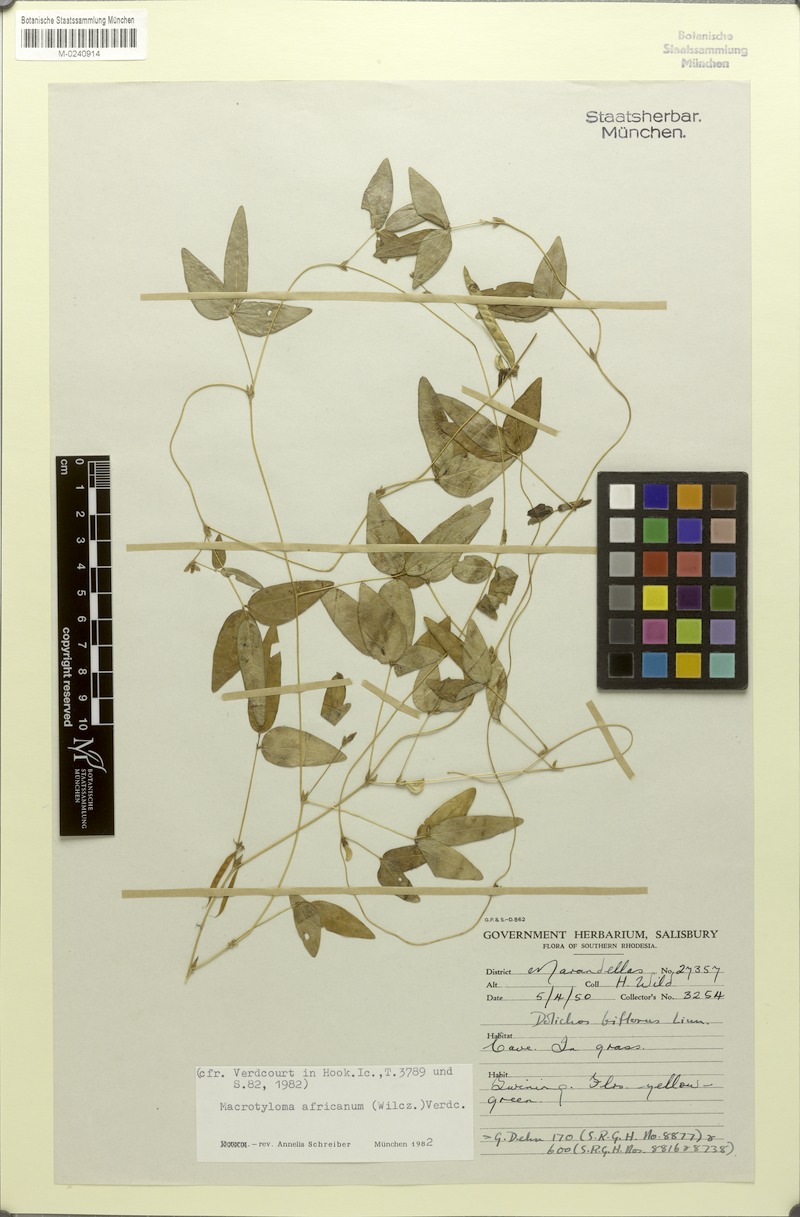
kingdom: Plantae
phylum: Tracheophyta
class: Magnoliopsida
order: Fabales
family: Fabaceae
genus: Macrotyloma
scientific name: Macrotyloma africanum
